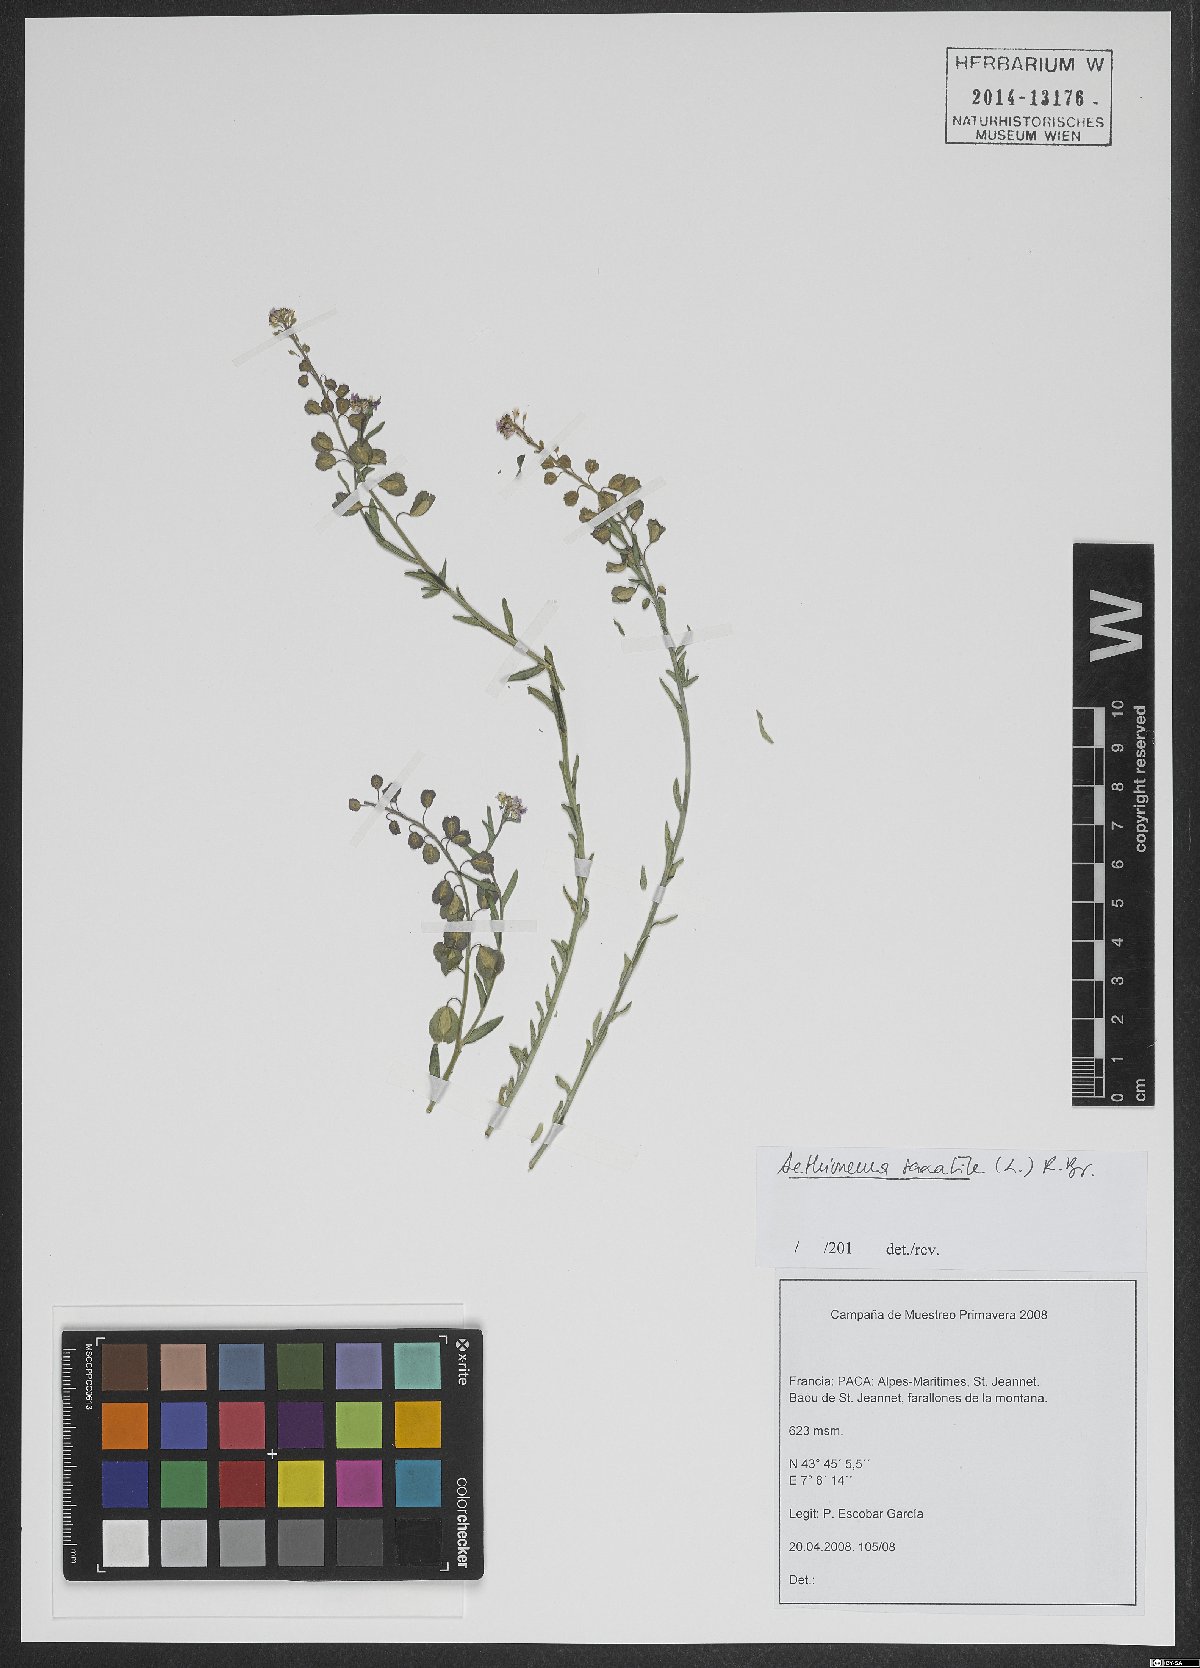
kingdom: Plantae
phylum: Tracheophyta
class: Magnoliopsida
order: Brassicales
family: Brassicaceae
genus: Aethionema
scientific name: Aethionema saxatile
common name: Burnt candytuft
